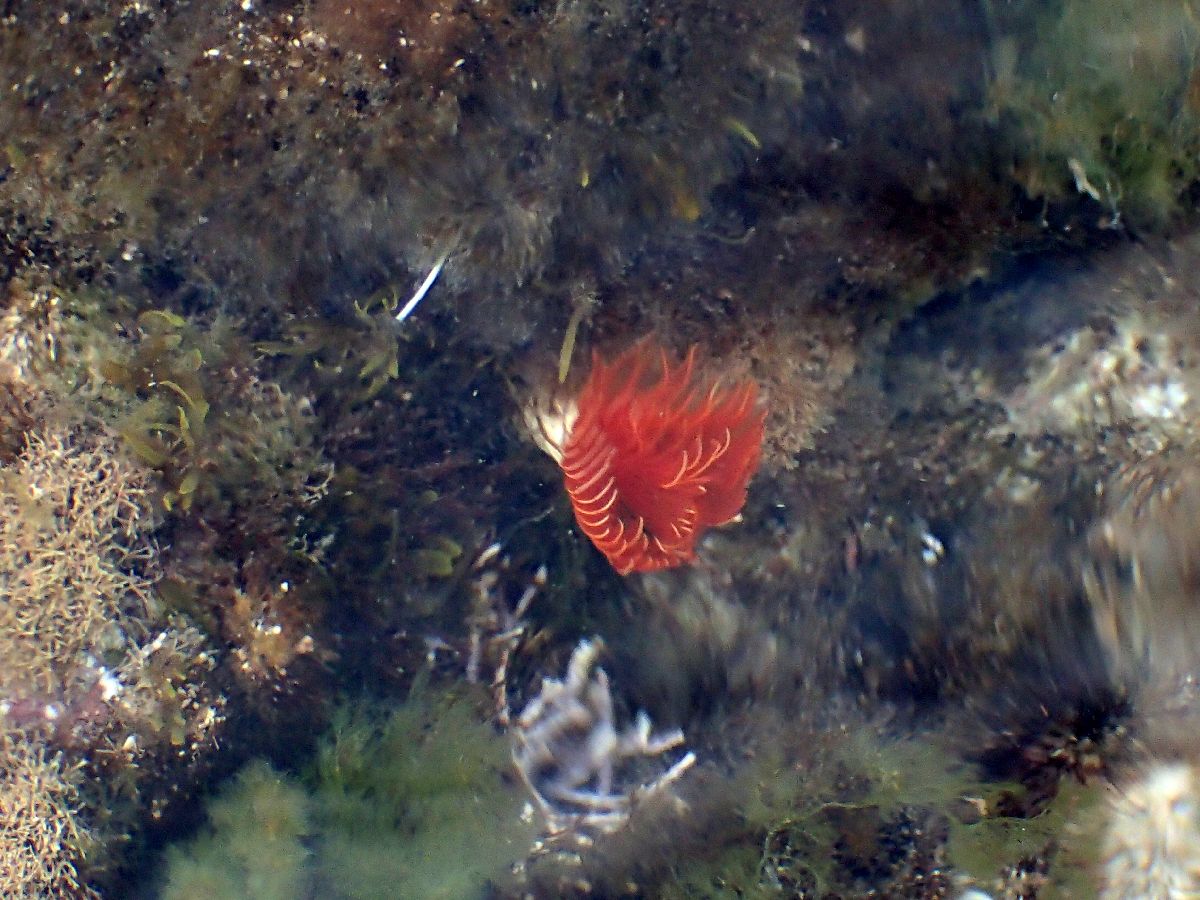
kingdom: Animalia
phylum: Annelida
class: Polychaeta
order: Sabellida
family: Serpulidae
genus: Protula
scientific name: Protula tubularia
